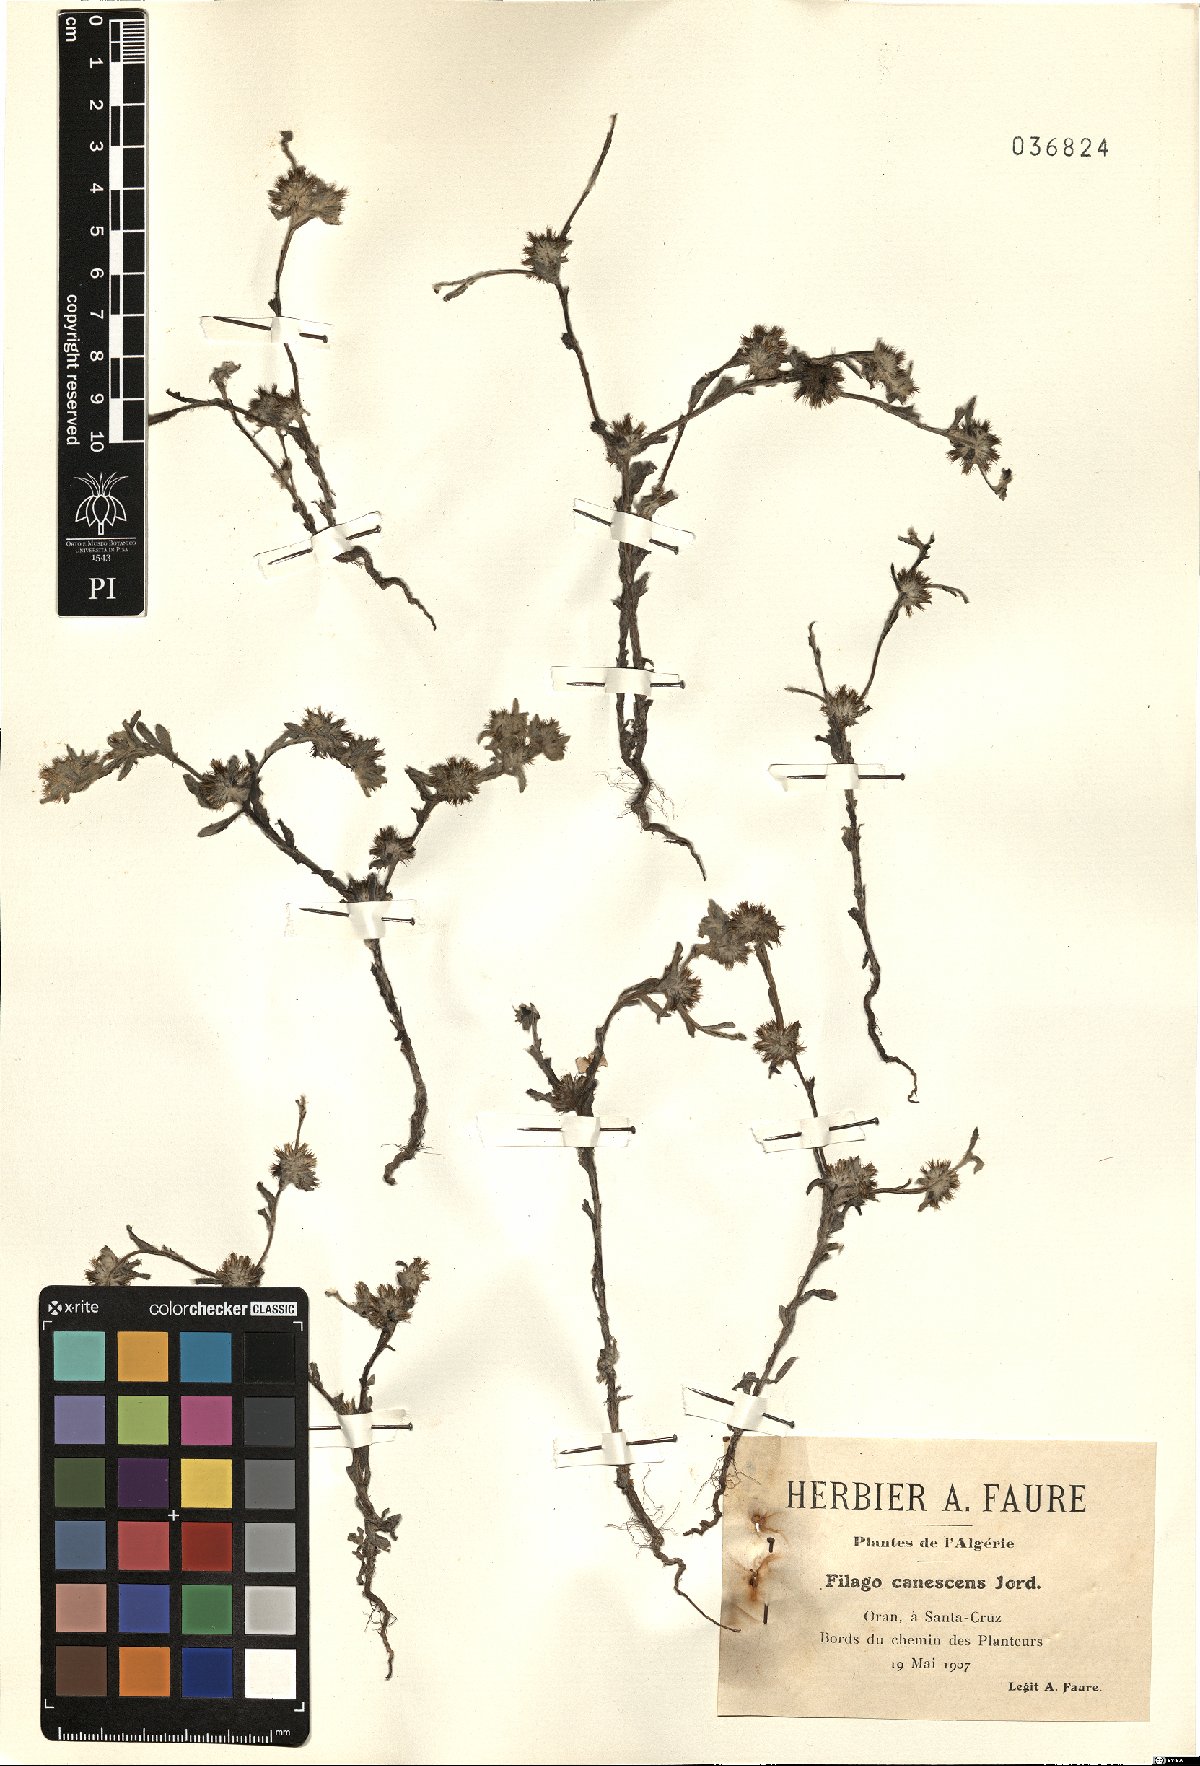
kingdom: Plantae
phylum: Tracheophyta
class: Magnoliopsida
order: Asterales
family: Asteraceae
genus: Filago
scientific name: Filago germanica
